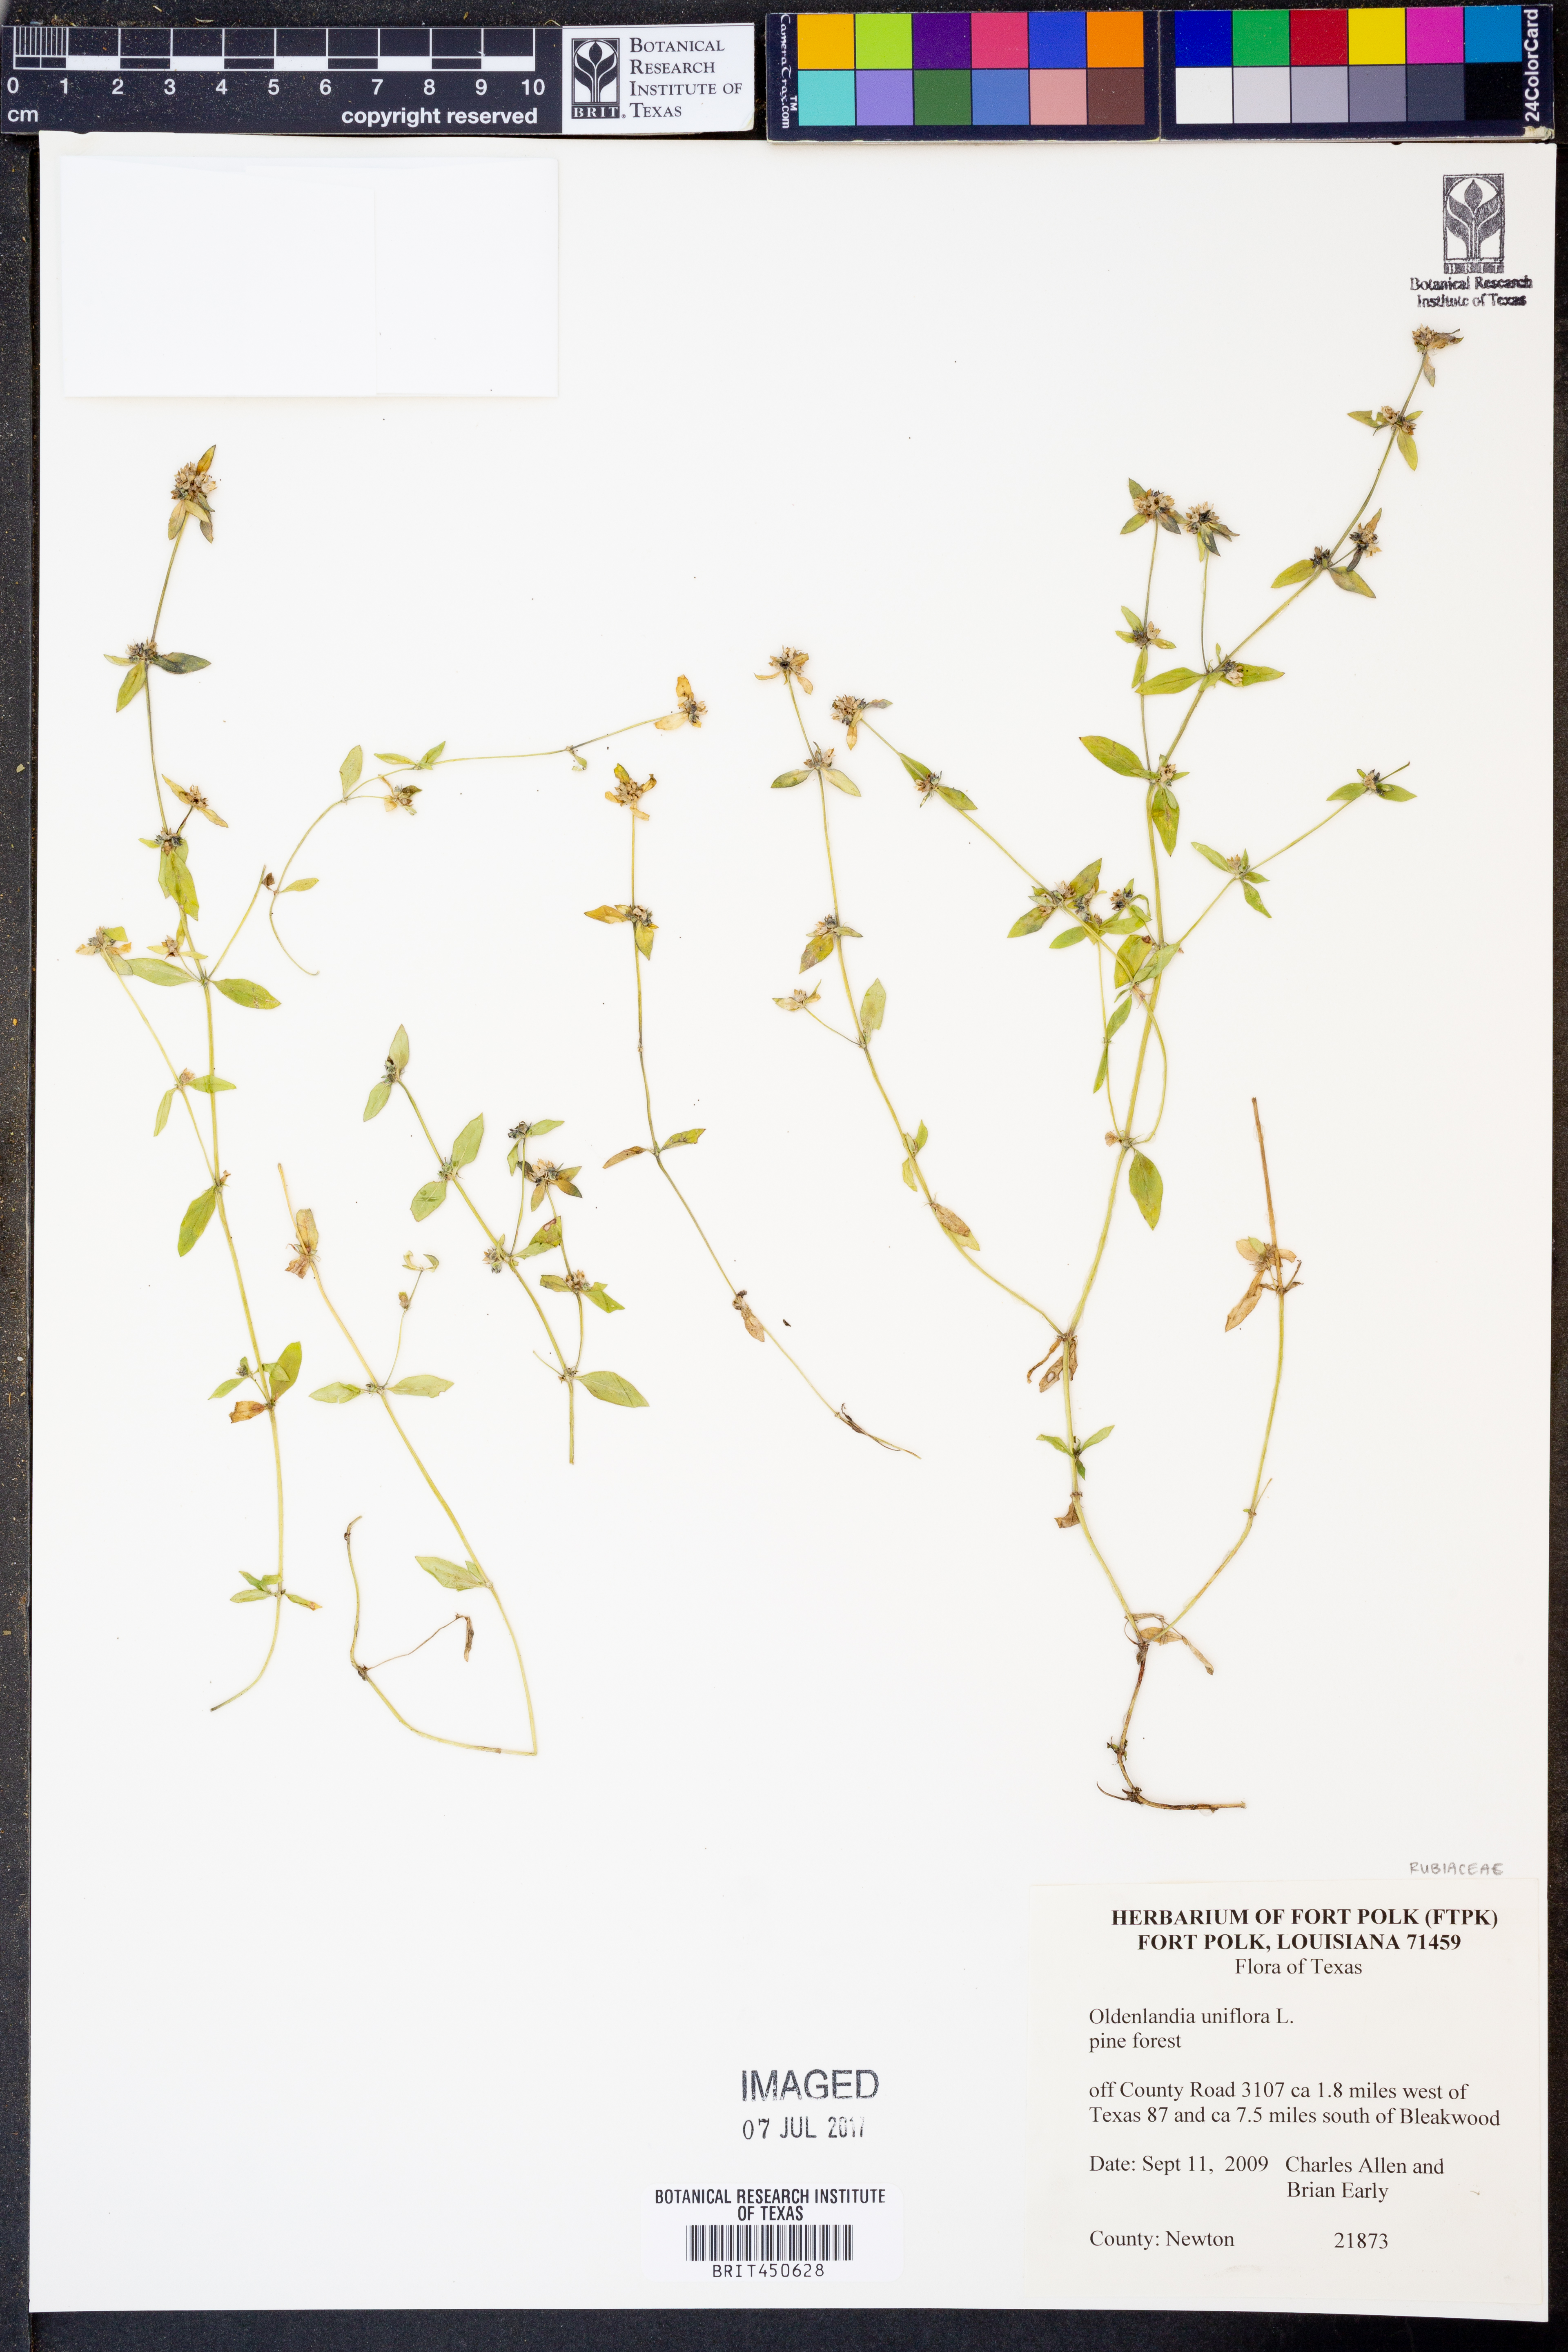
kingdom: Plantae
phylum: Tracheophyta
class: Magnoliopsida
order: Gentianales
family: Rubiaceae
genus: Edrastima
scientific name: Edrastima uniflora
